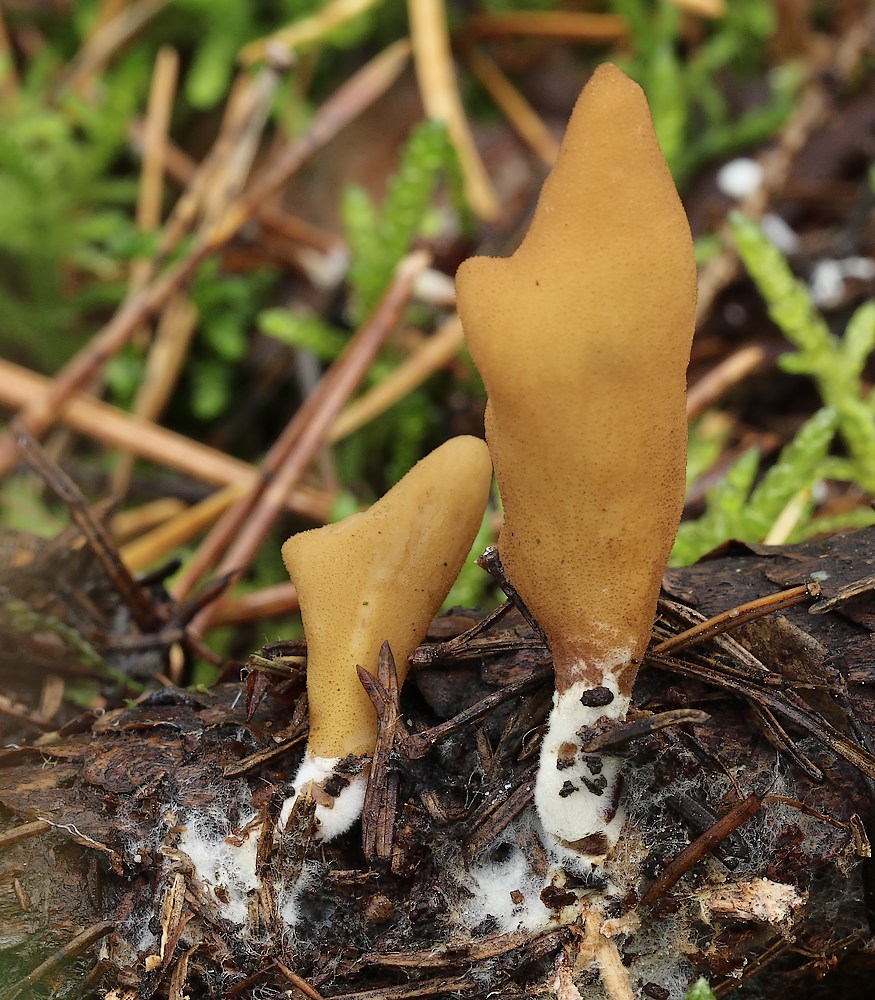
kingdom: Fungi
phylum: Ascomycota
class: Pezizomycetes
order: Pezizales
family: Otideaceae
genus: Otidea
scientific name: Otidea tuomikoskii
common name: kano-ørebæger
